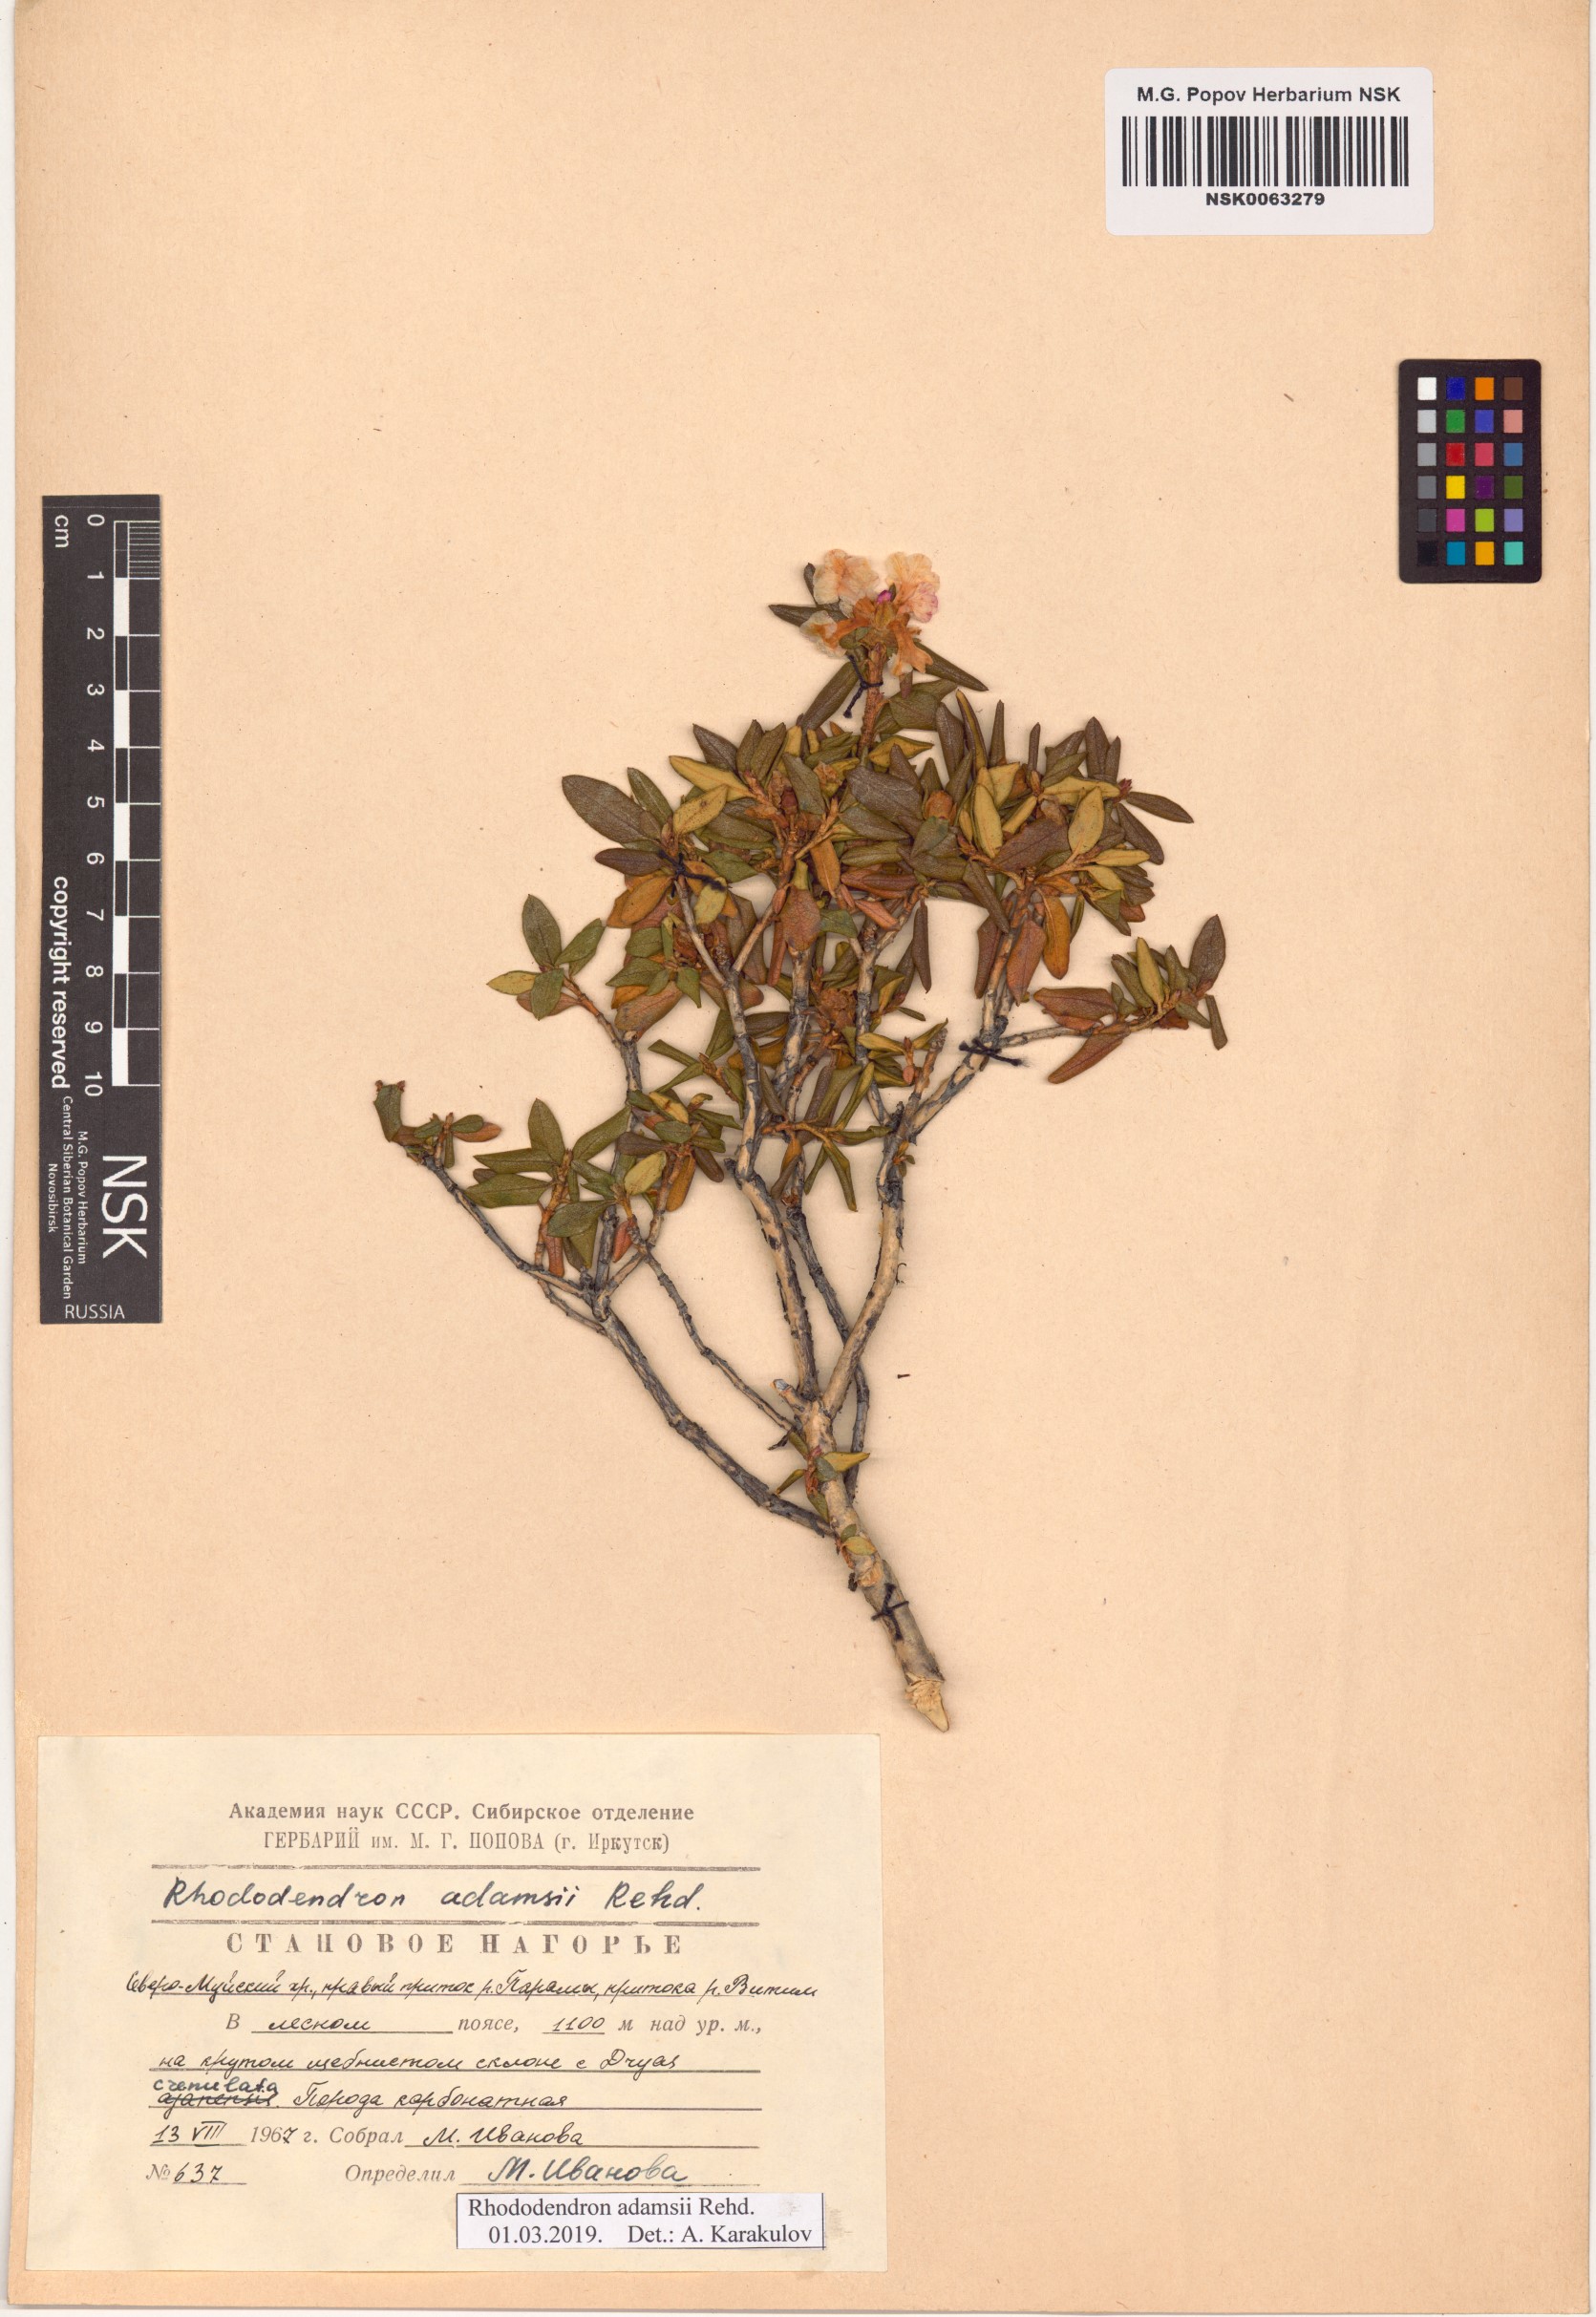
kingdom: Plantae
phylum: Tracheophyta
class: Magnoliopsida
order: Ericales
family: Ericaceae
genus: Rhododendron
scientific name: Rhododendron adamsii
